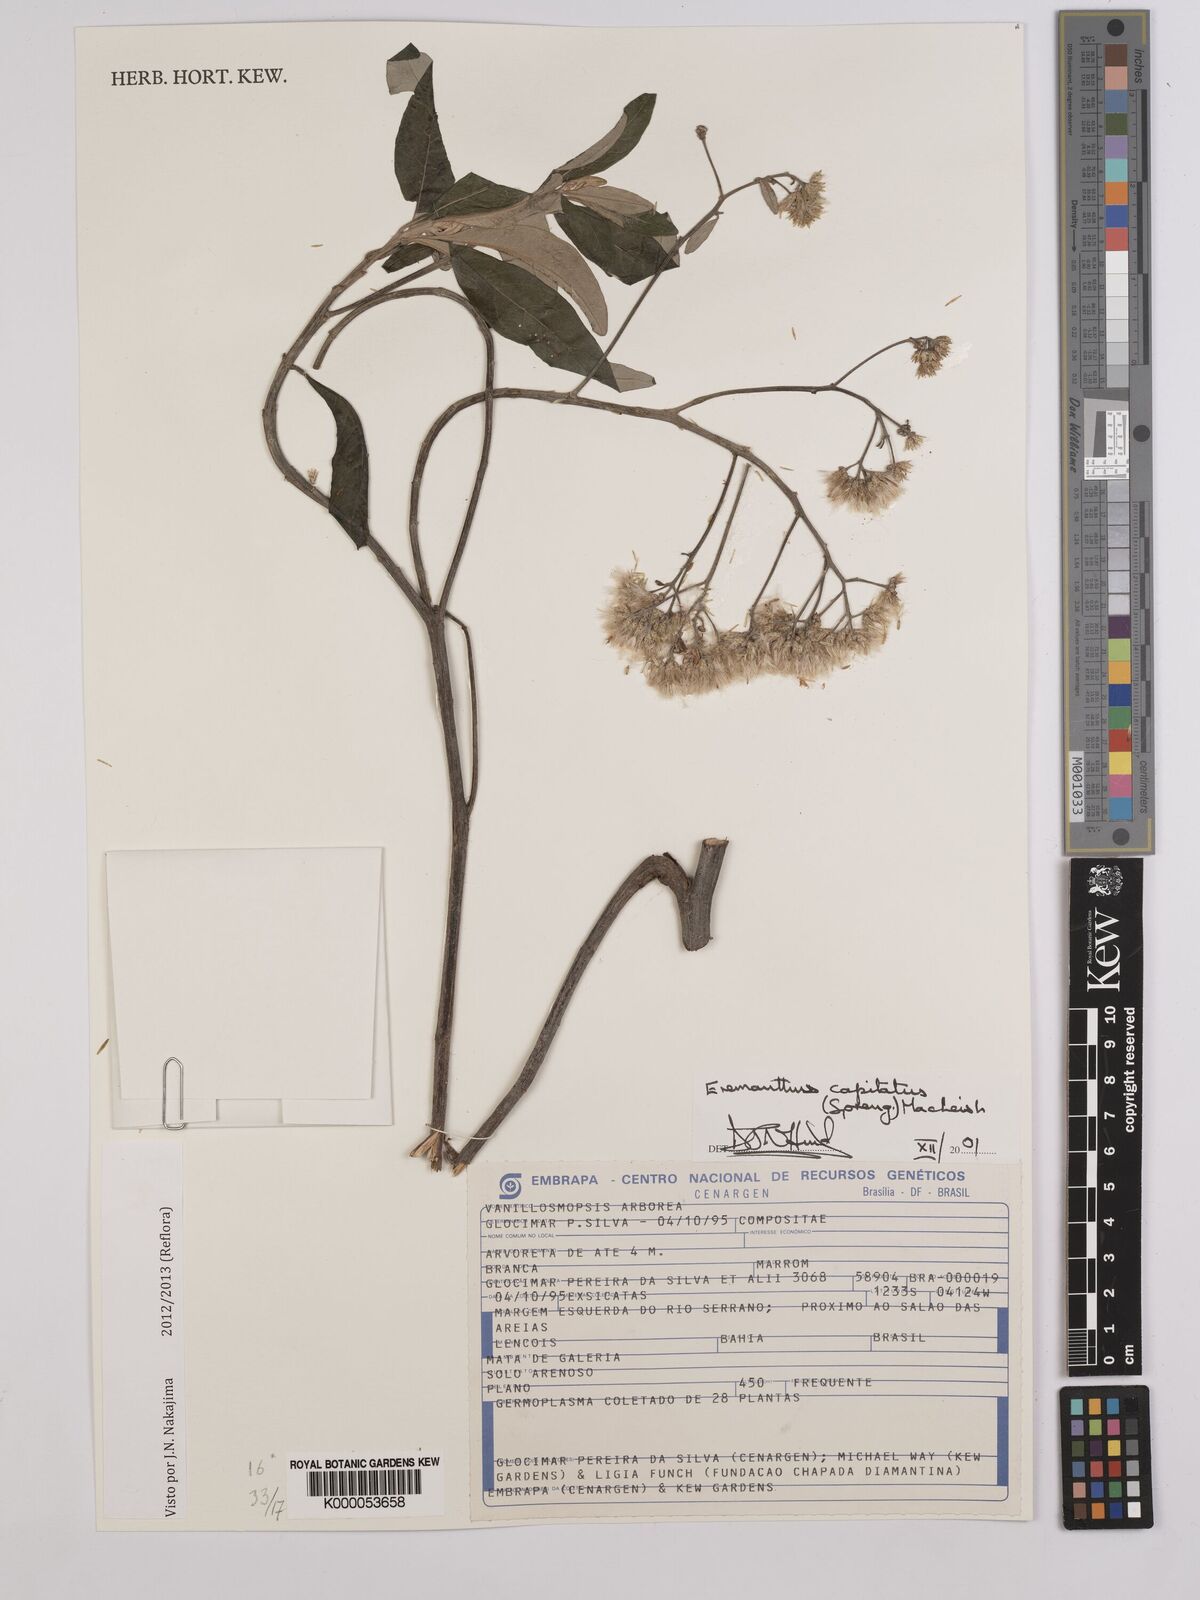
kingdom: Plantae
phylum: Tracheophyta
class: Magnoliopsida
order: Asterales
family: Asteraceae
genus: Eremanthus
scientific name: Eremanthus capitatus
